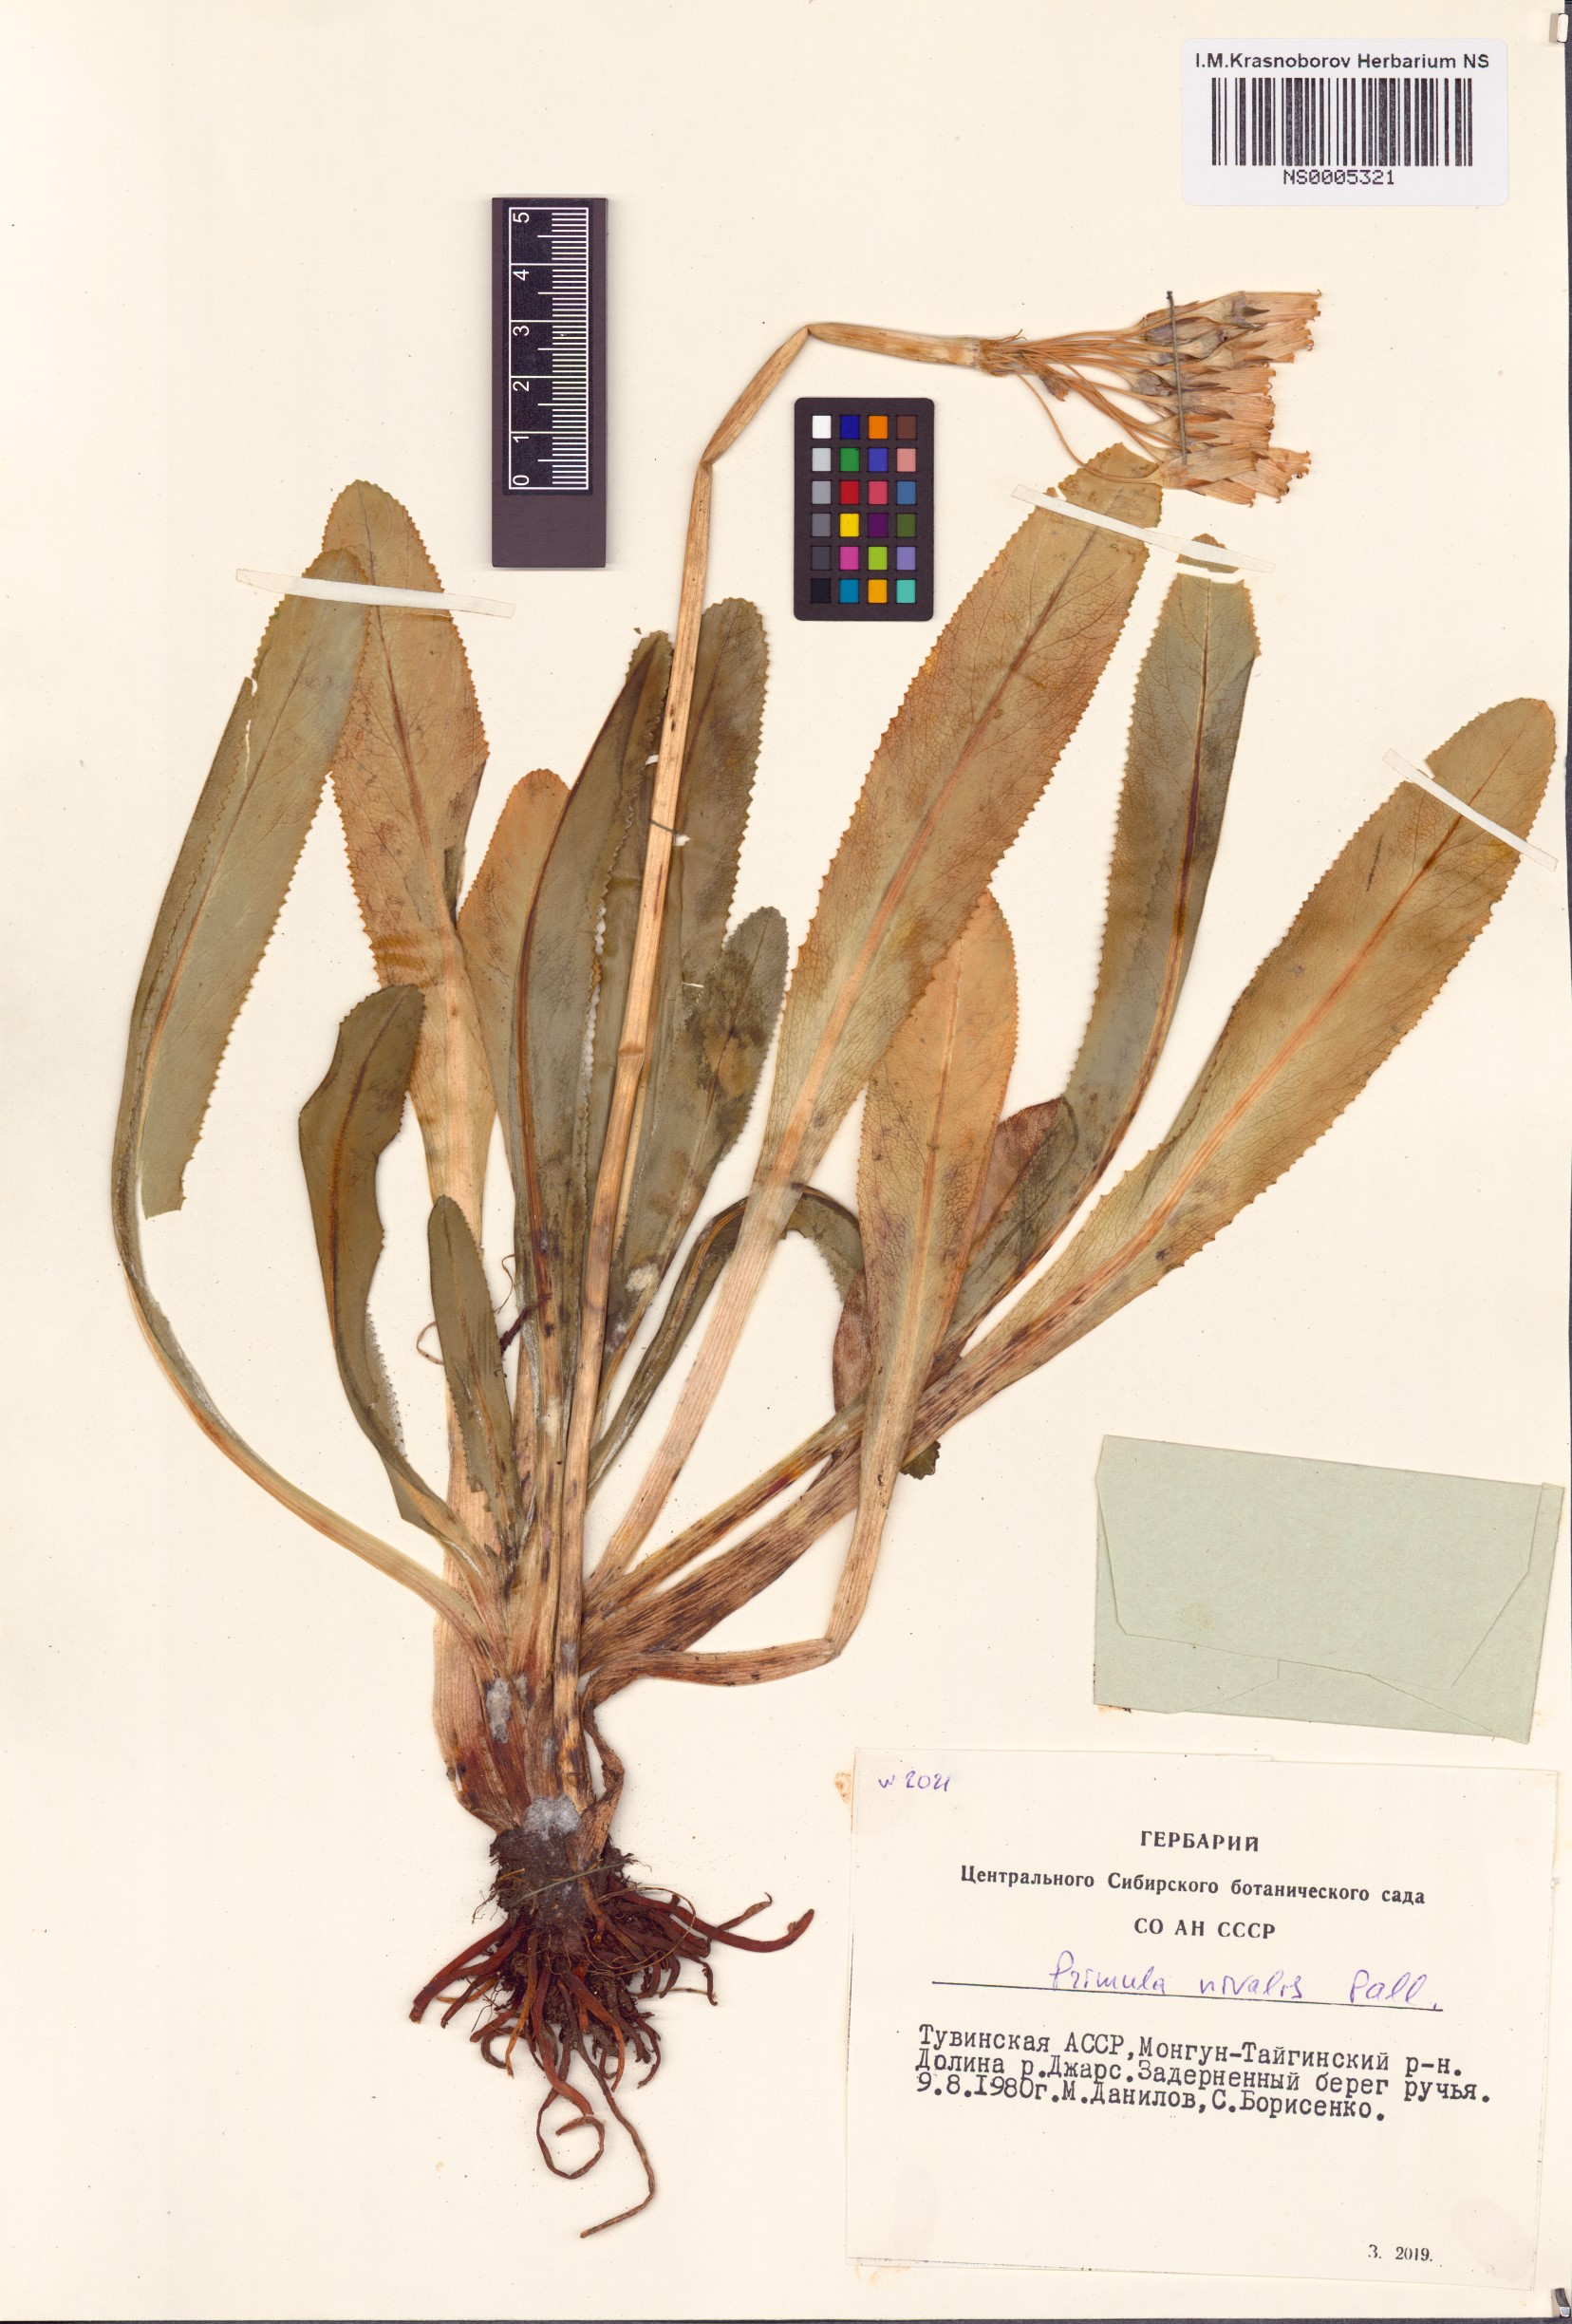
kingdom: Plantae
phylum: Tracheophyta
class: Magnoliopsida
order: Ericales
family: Primulaceae
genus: Primula
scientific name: Primula nivalis
